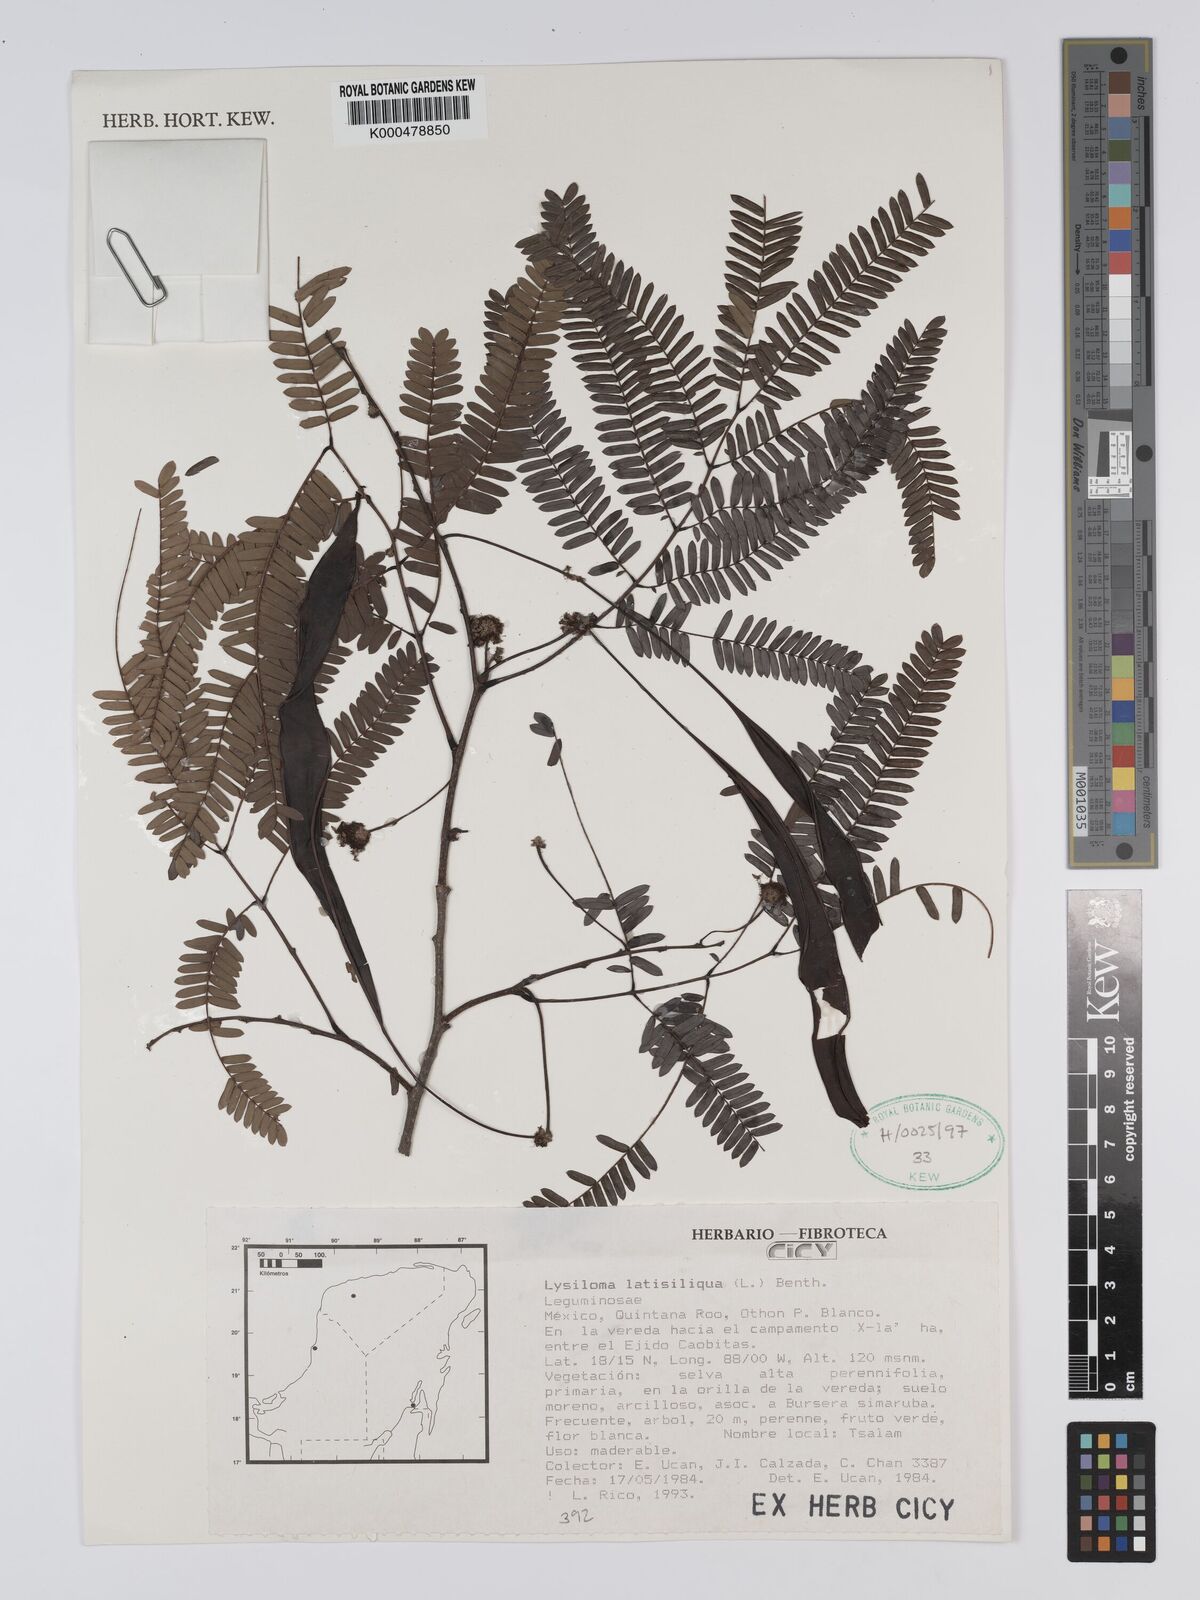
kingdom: Plantae
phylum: Tracheophyta
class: Magnoliopsida
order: Fabales
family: Fabaceae
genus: Lysiloma
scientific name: Lysiloma latisiliquum
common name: Wild tamarind
